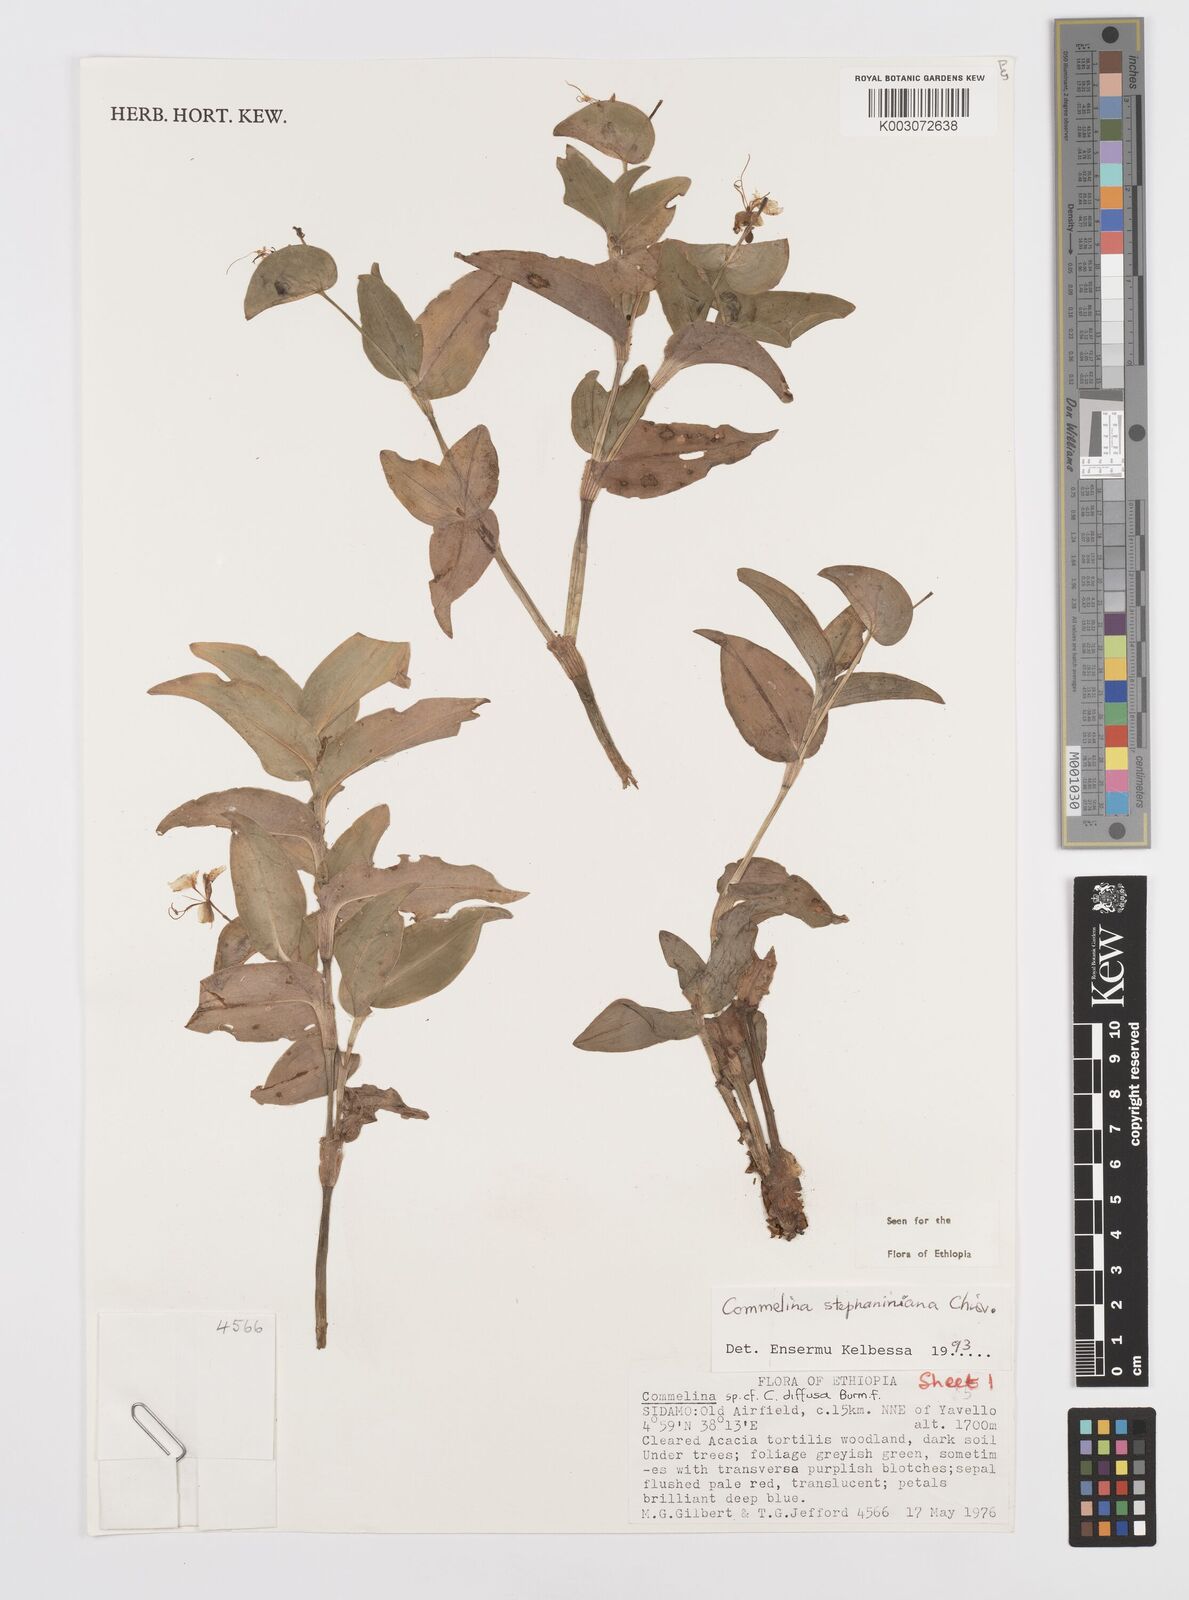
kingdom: Plantae
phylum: Tracheophyta
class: Liliopsida
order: Commelinales
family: Commelinaceae
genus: Commelina
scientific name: Commelina stefaniniana
